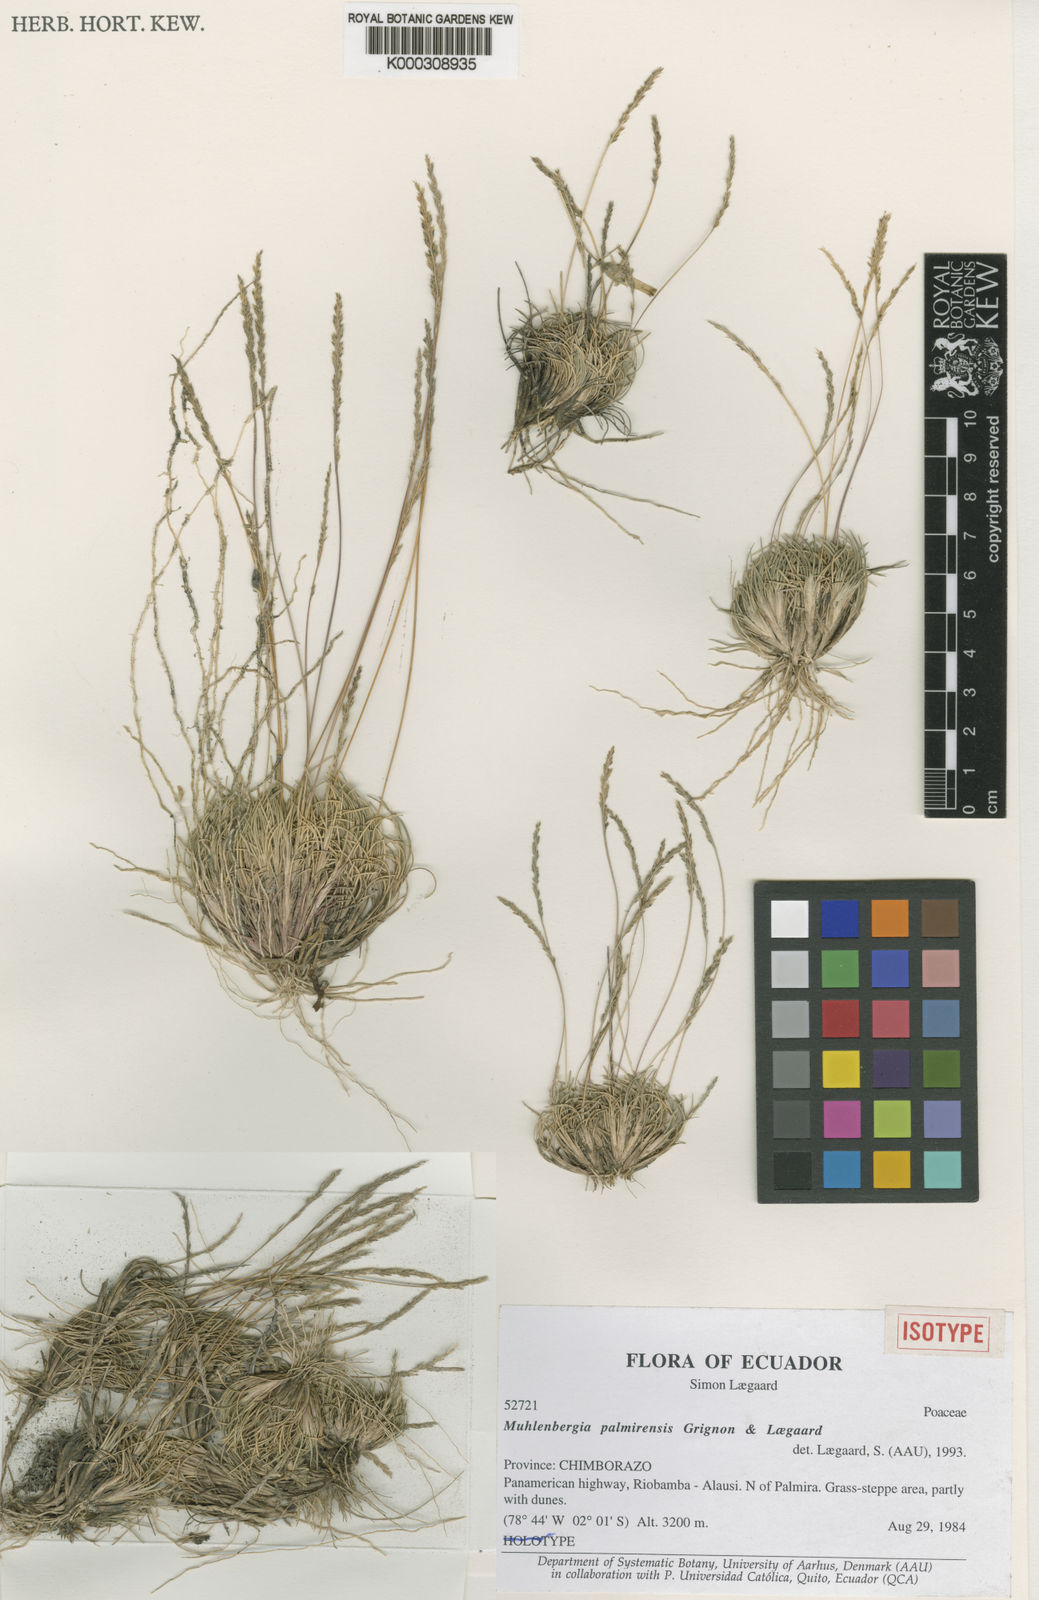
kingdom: Plantae
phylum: Tracheophyta
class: Liliopsida
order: Poales
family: Poaceae
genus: Muhlenbergia
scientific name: Muhlenbergia palmirensis
